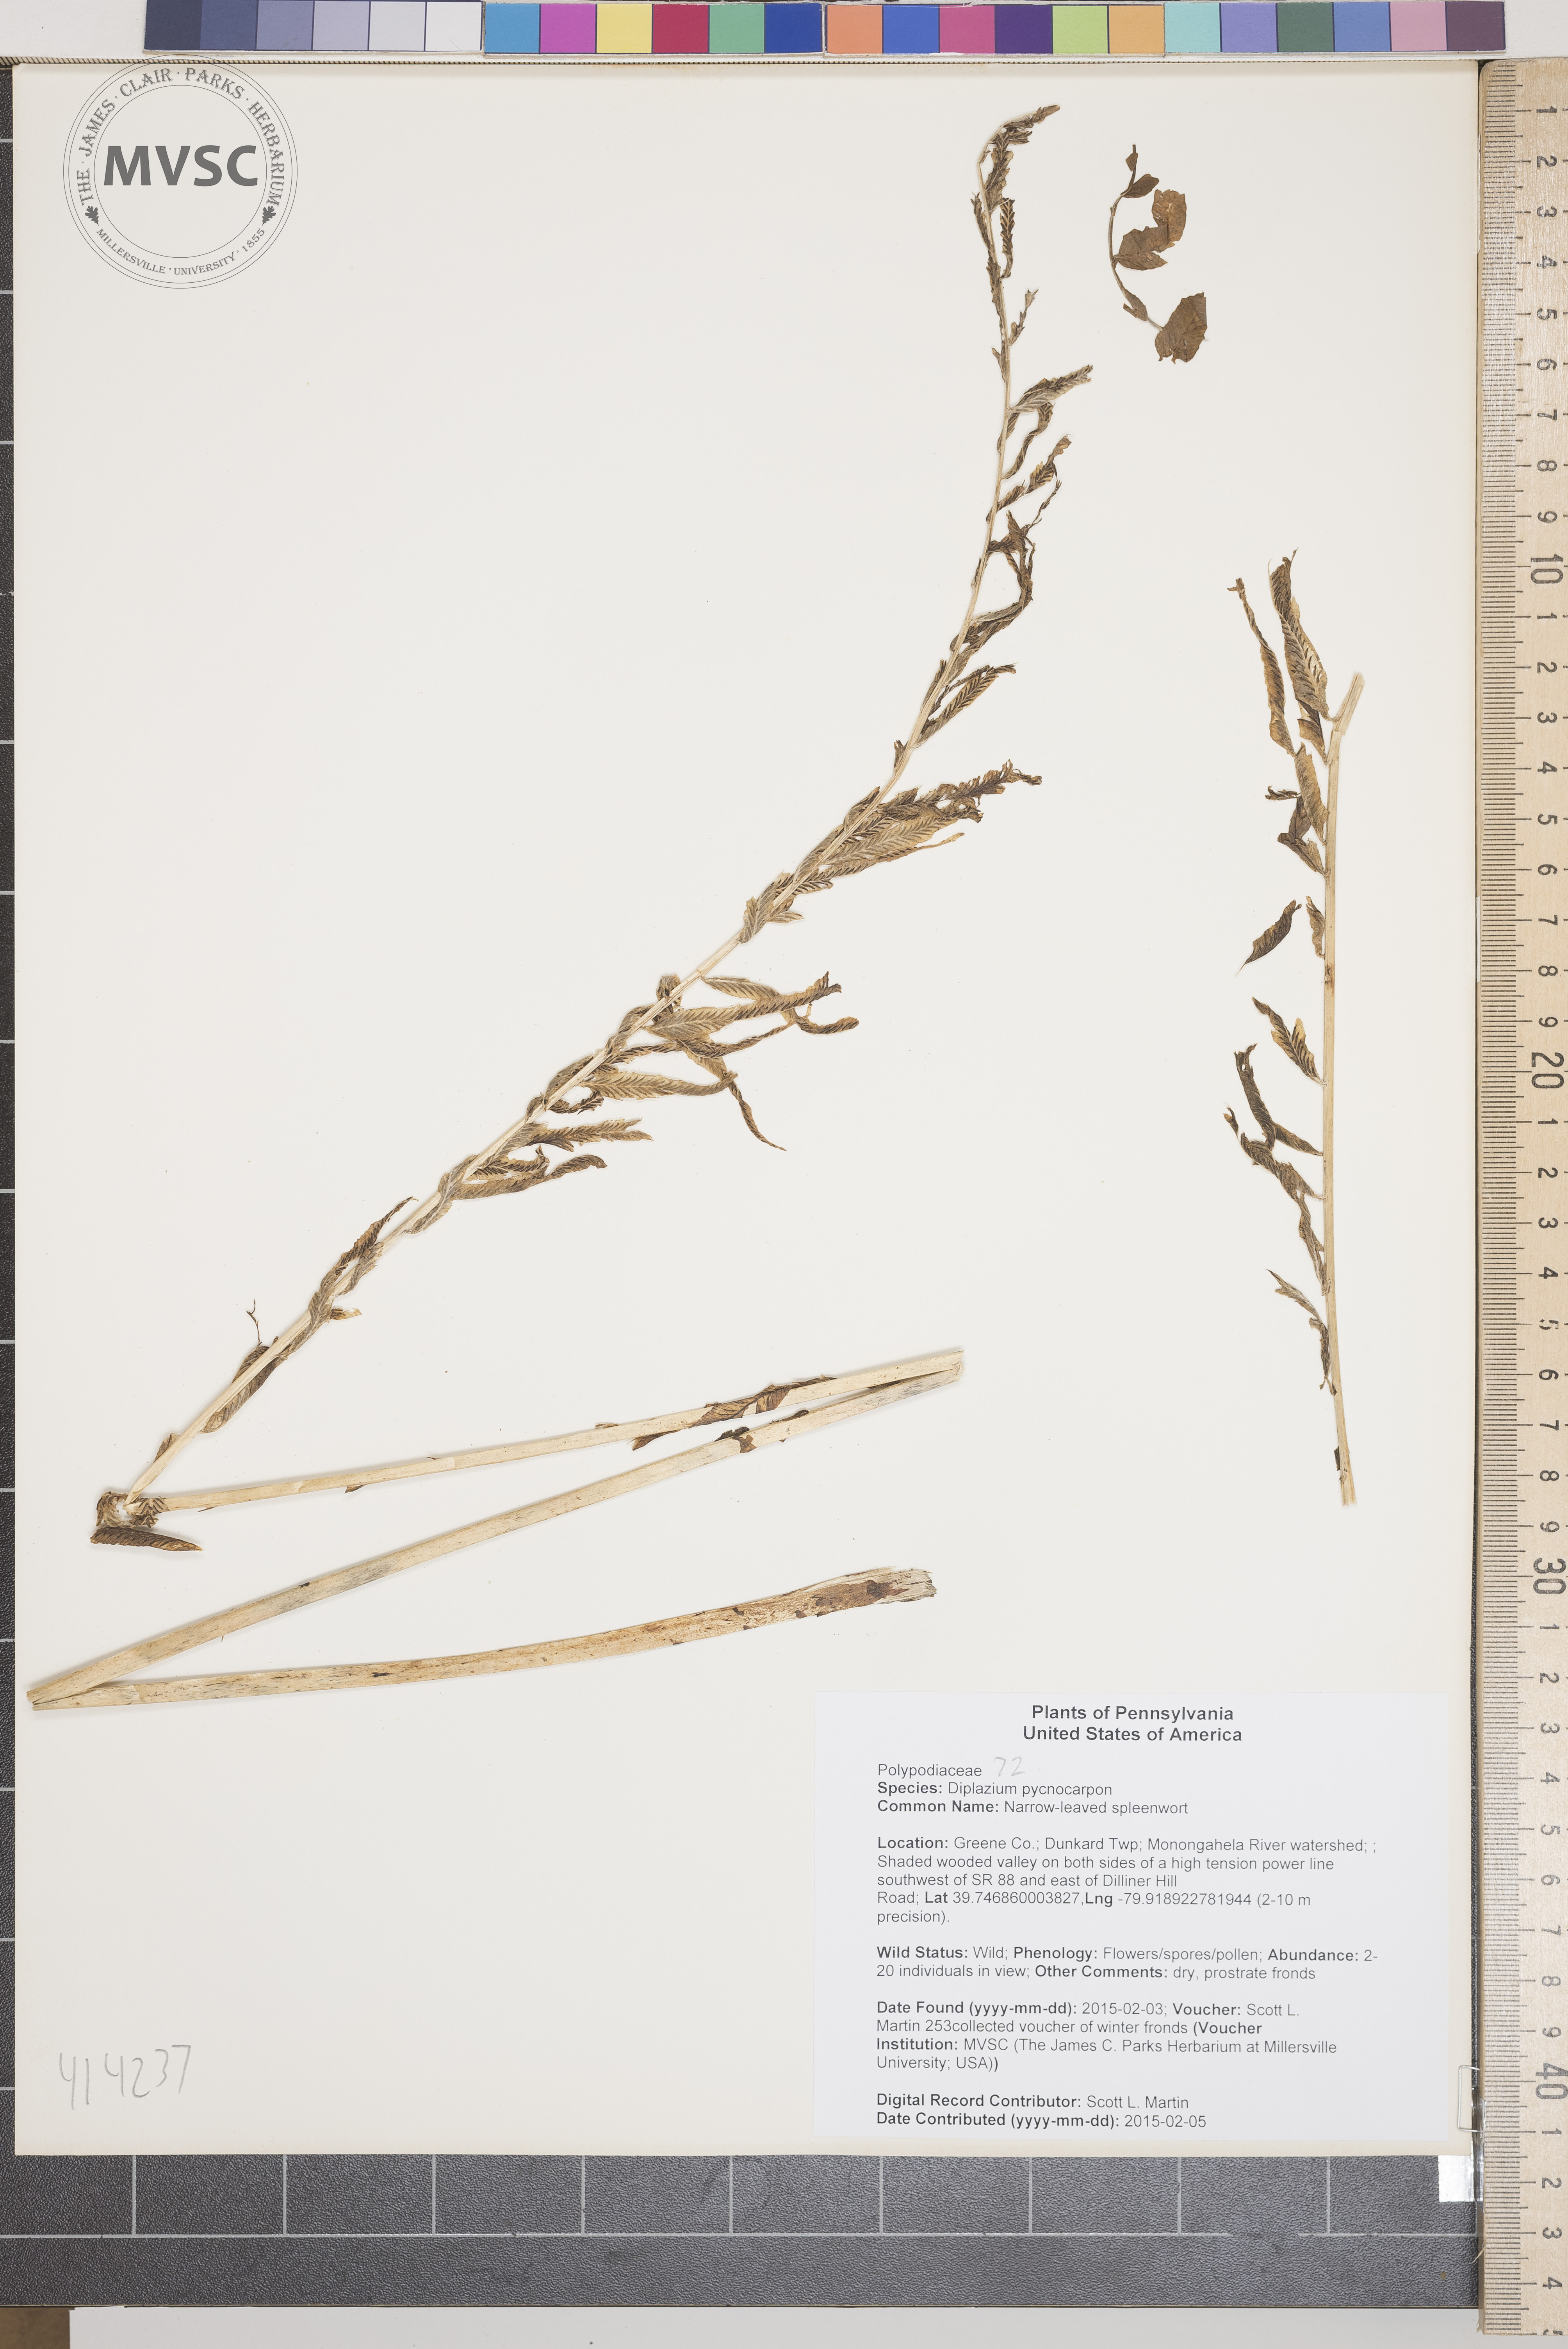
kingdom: Plantae
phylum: Tracheophyta
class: Polypodiopsida
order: Polypodiales
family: Diplaziopsidaceae
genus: Homalosorus
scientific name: Homalosorus pycnocarpos
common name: Narrow-leaved spleenwort
